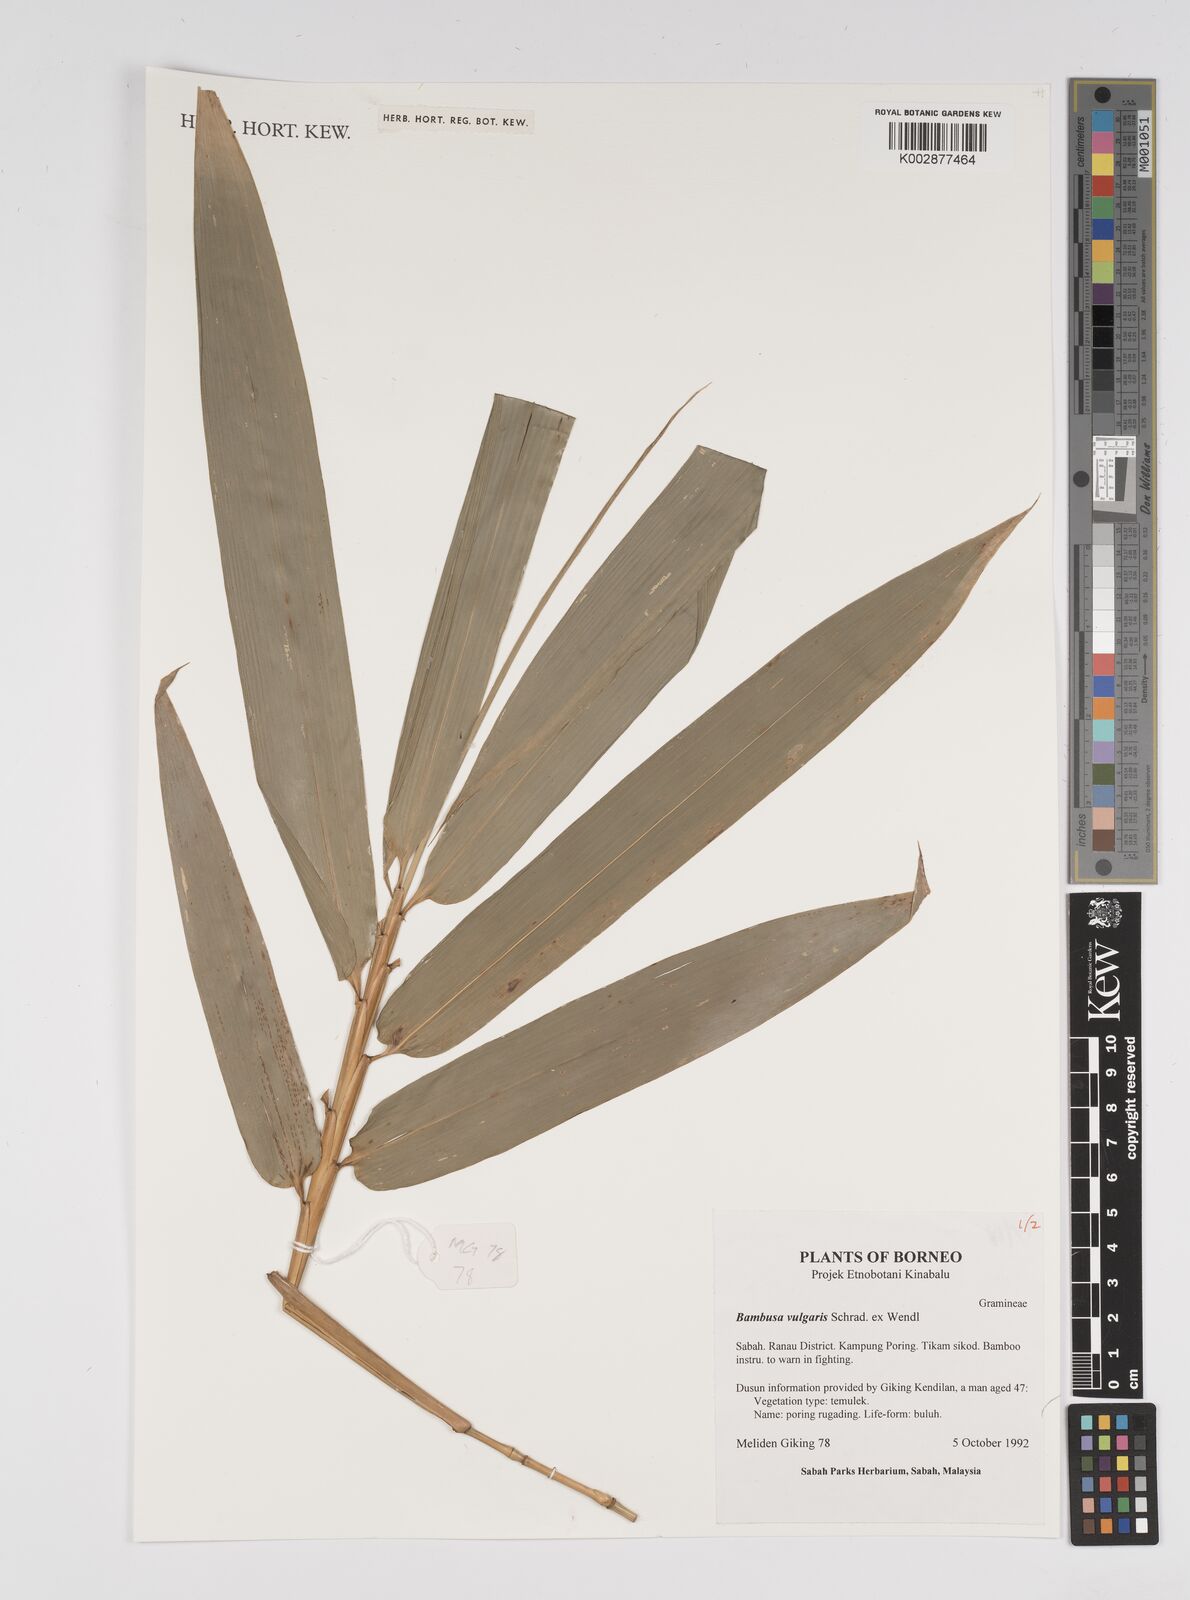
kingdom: Plantae
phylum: Tracheophyta
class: Liliopsida
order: Poales
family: Poaceae
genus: Bambusa
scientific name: Bambusa vulgaris
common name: Common bamboo
